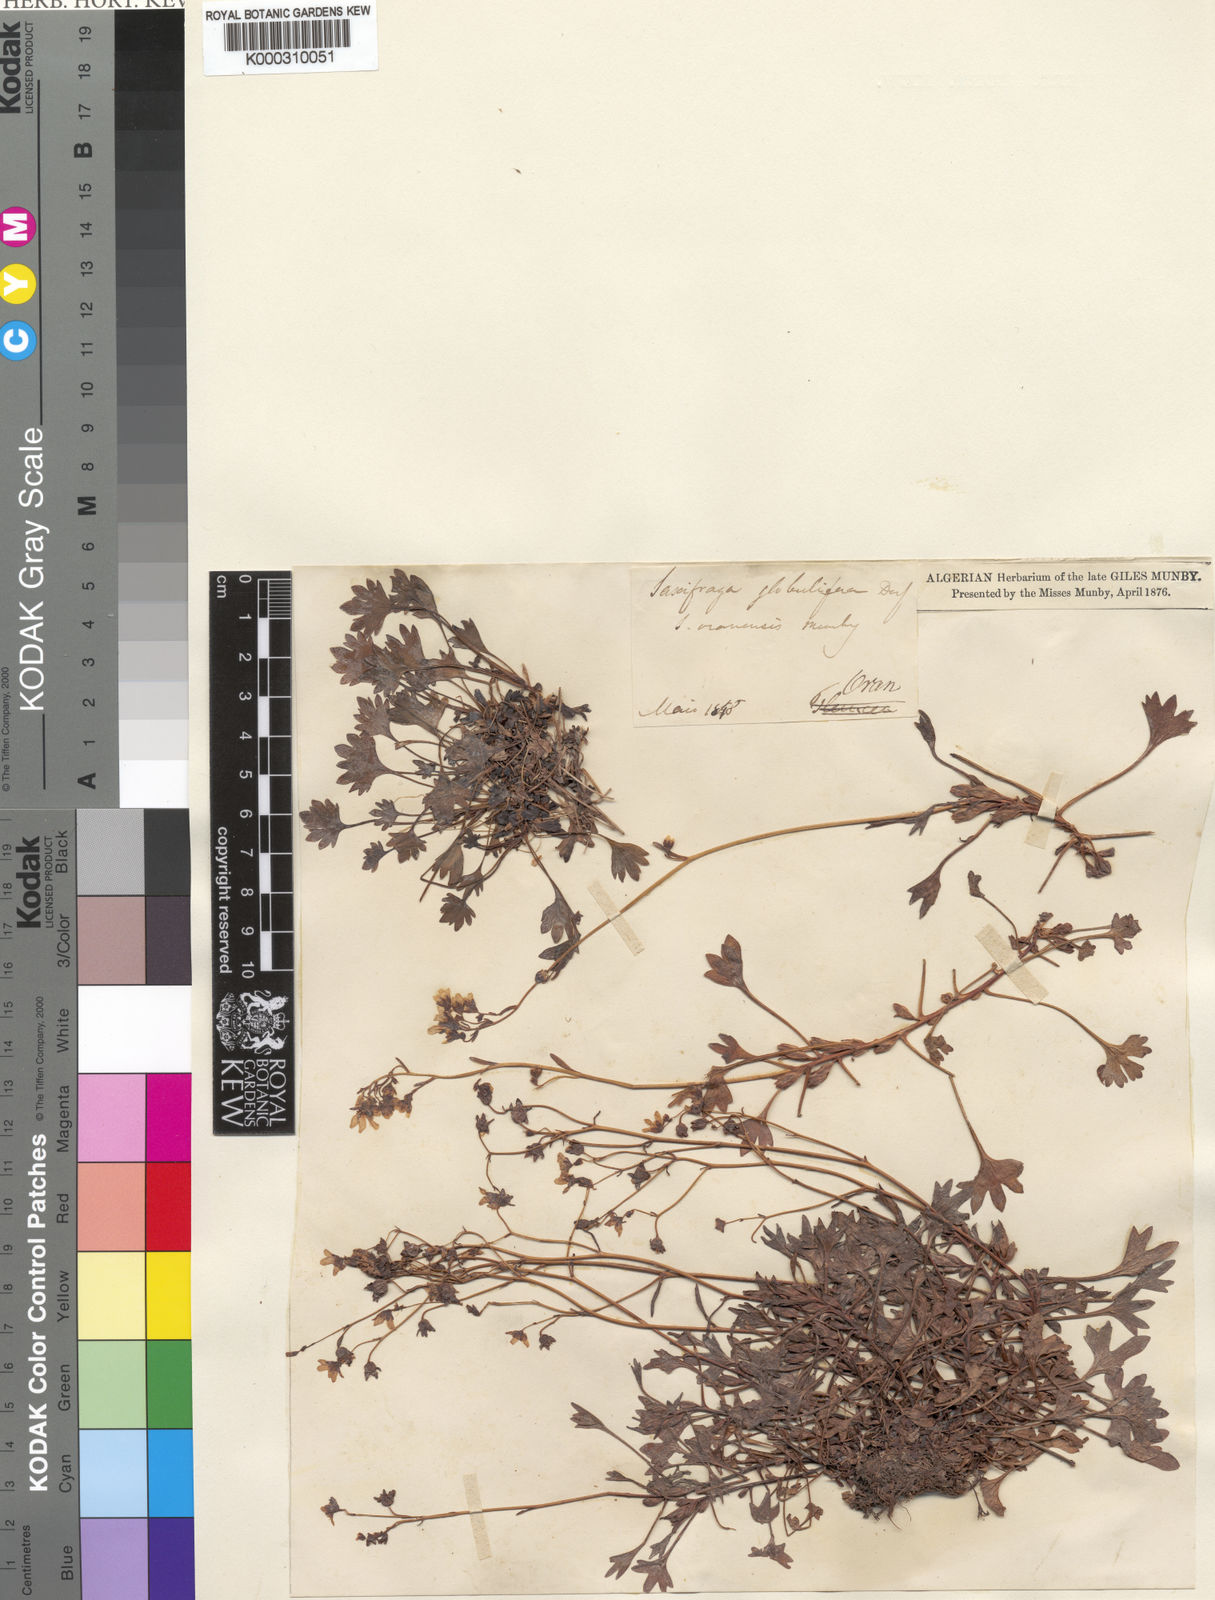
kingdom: Plantae
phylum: Tracheophyta
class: Magnoliopsida
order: Saxifragales
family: Saxifragaceae
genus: Saxifraga
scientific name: Saxifraga globulifera
